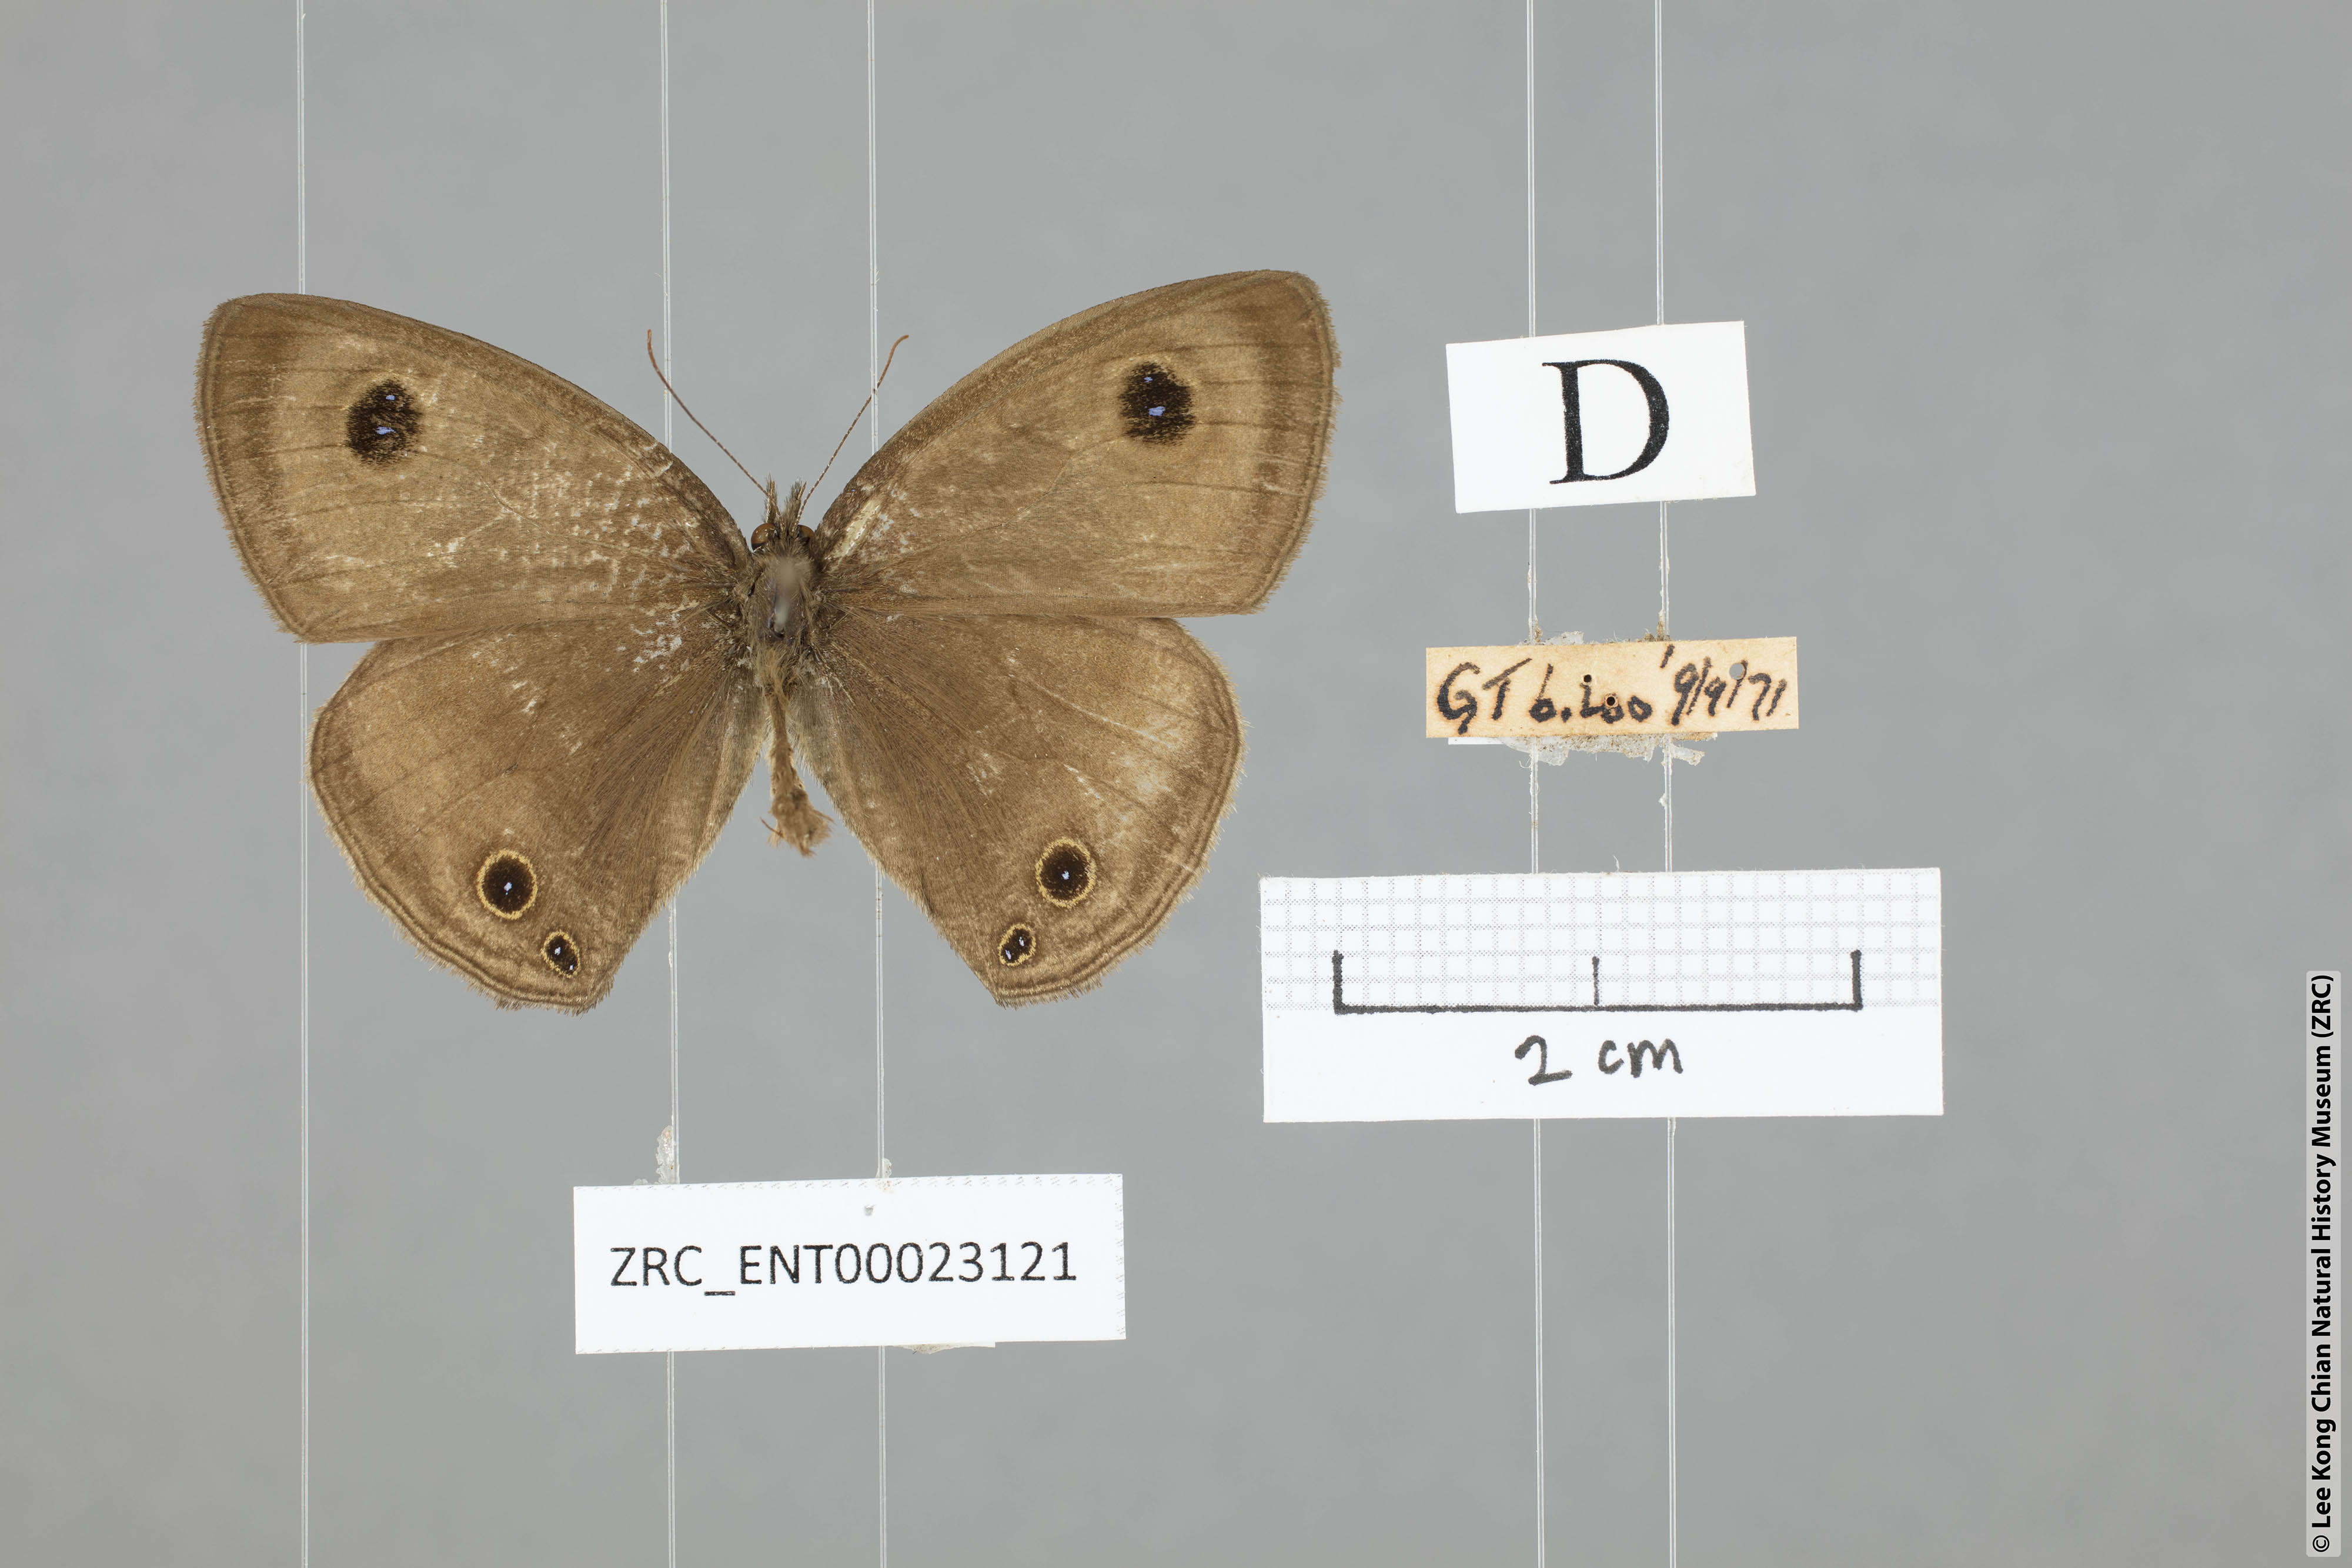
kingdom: Animalia
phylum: Arthropoda
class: Insecta
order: Lepidoptera
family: Nymphalidae
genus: Ypthima
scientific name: Ypthima pandocus
